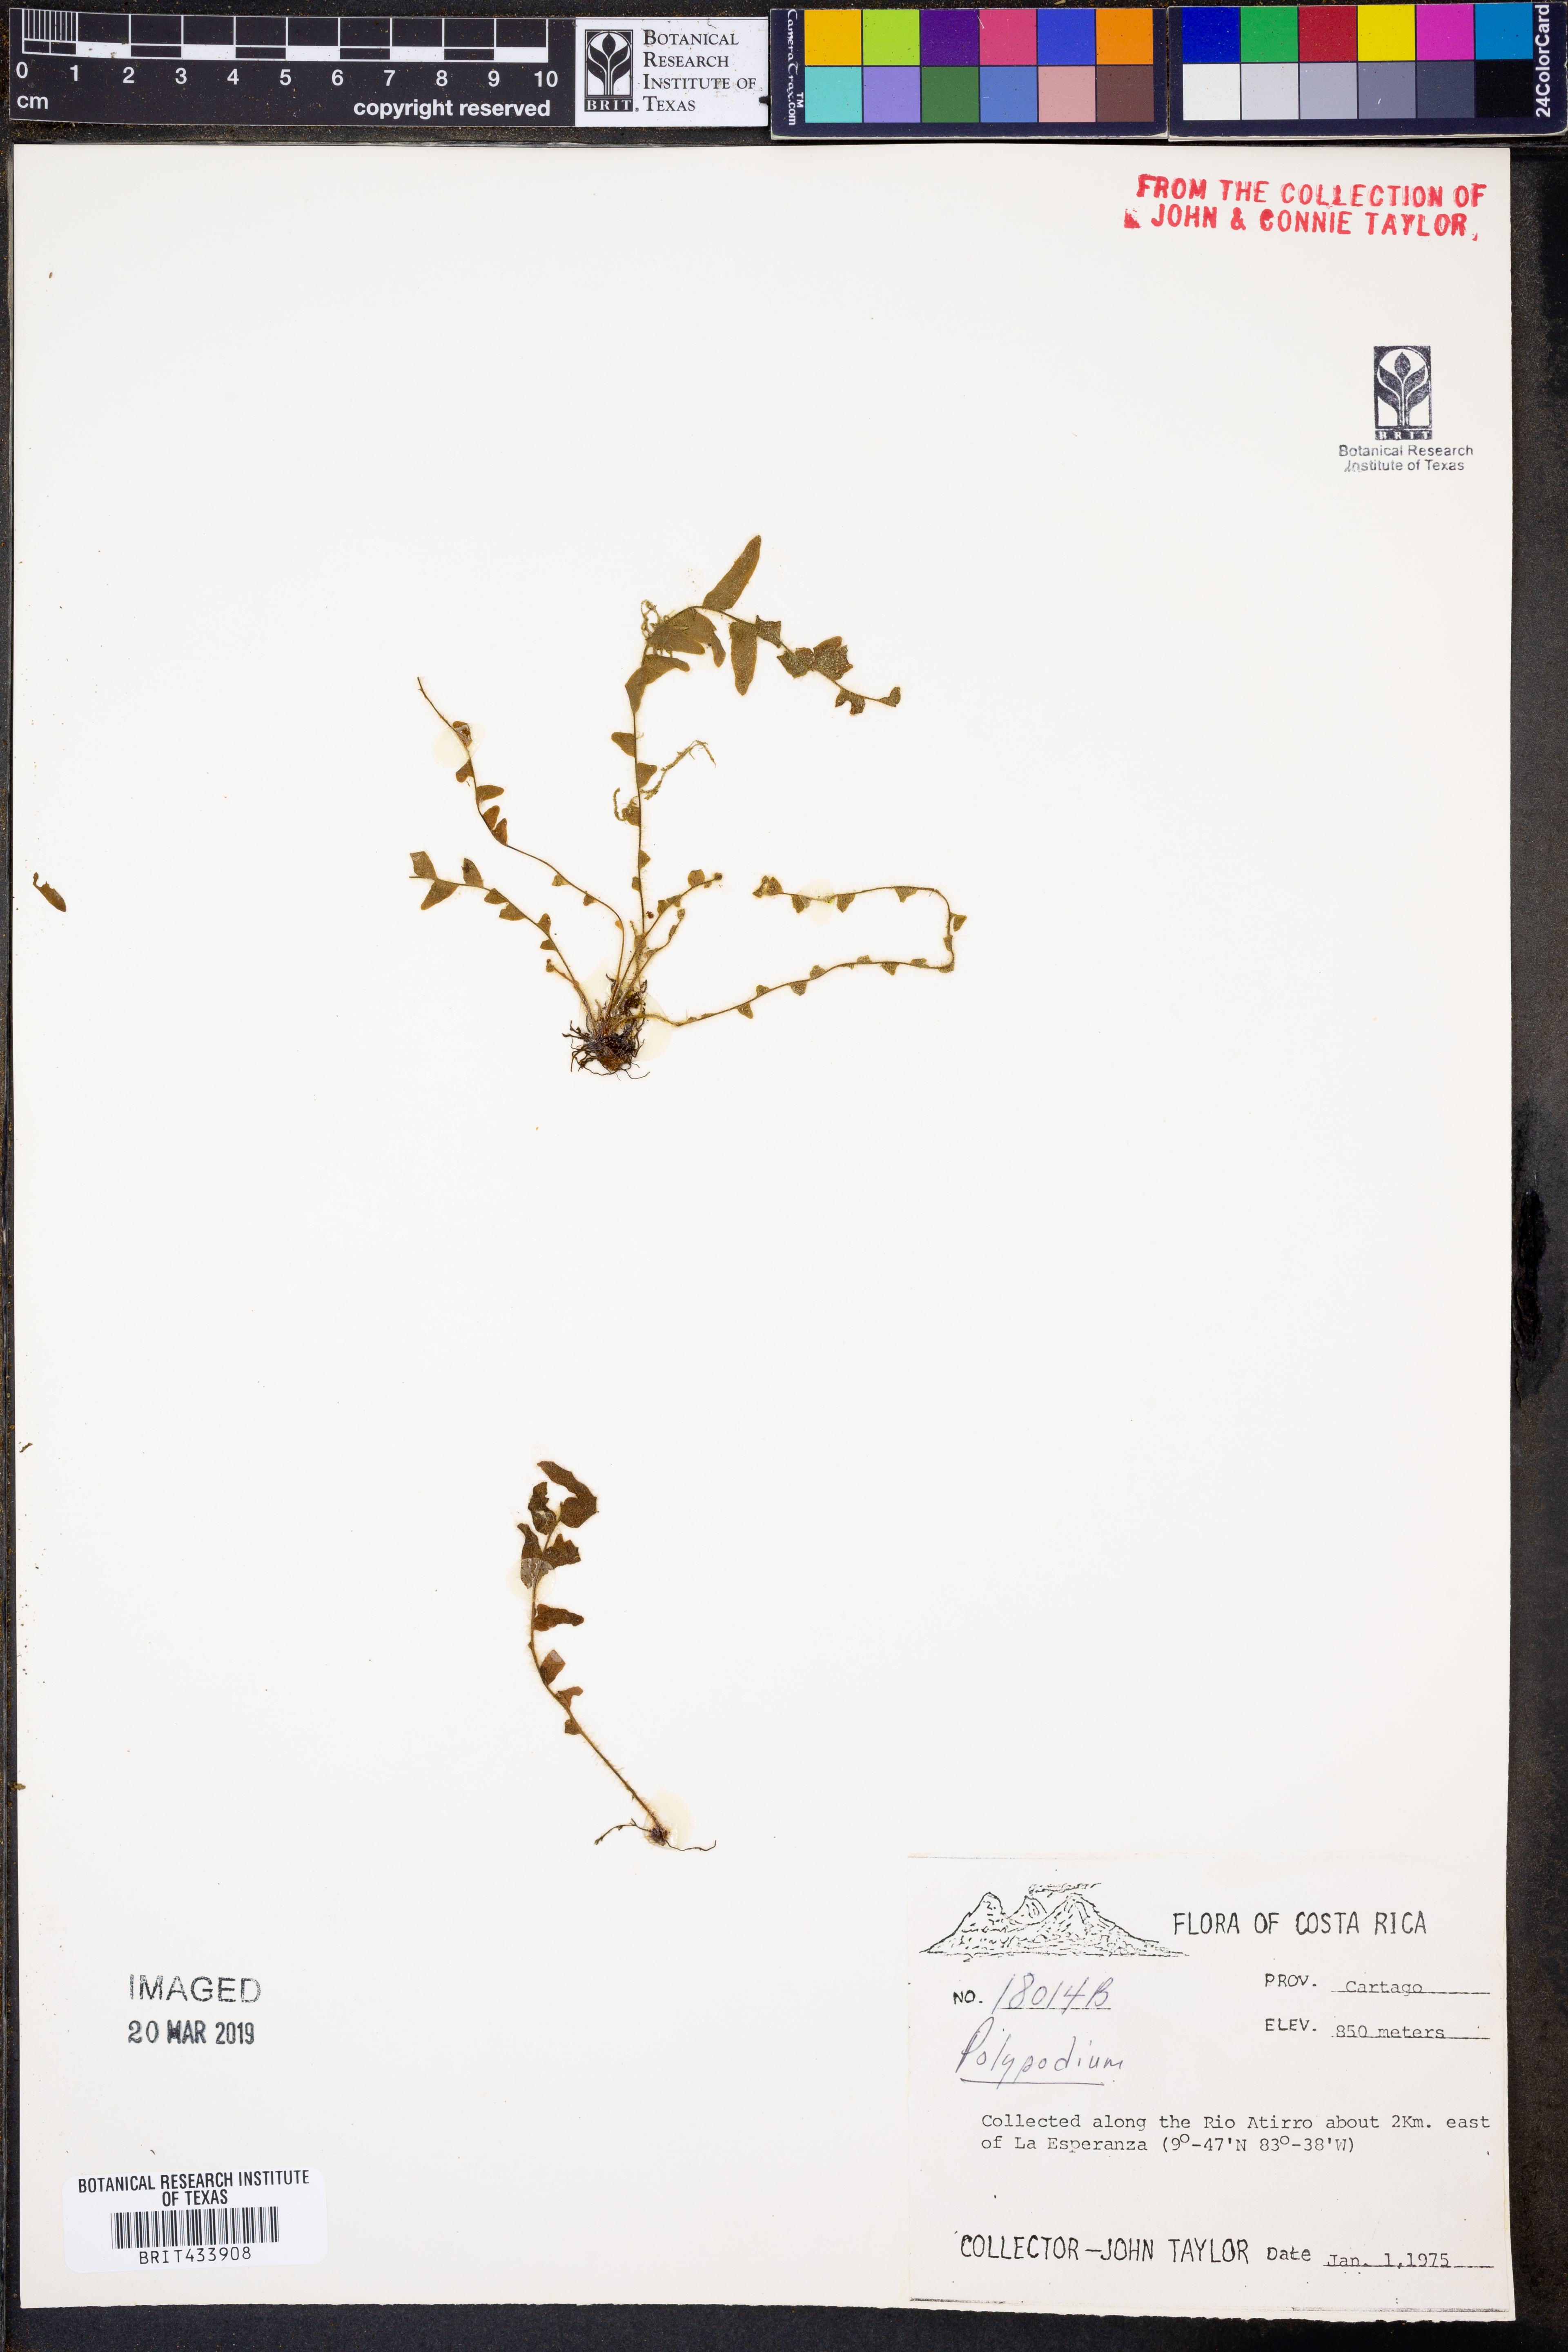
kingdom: Plantae
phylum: Tracheophyta
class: Polypodiopsida
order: Polypodiales
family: Polypodiaceae
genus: Polypodium
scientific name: Polypodium
